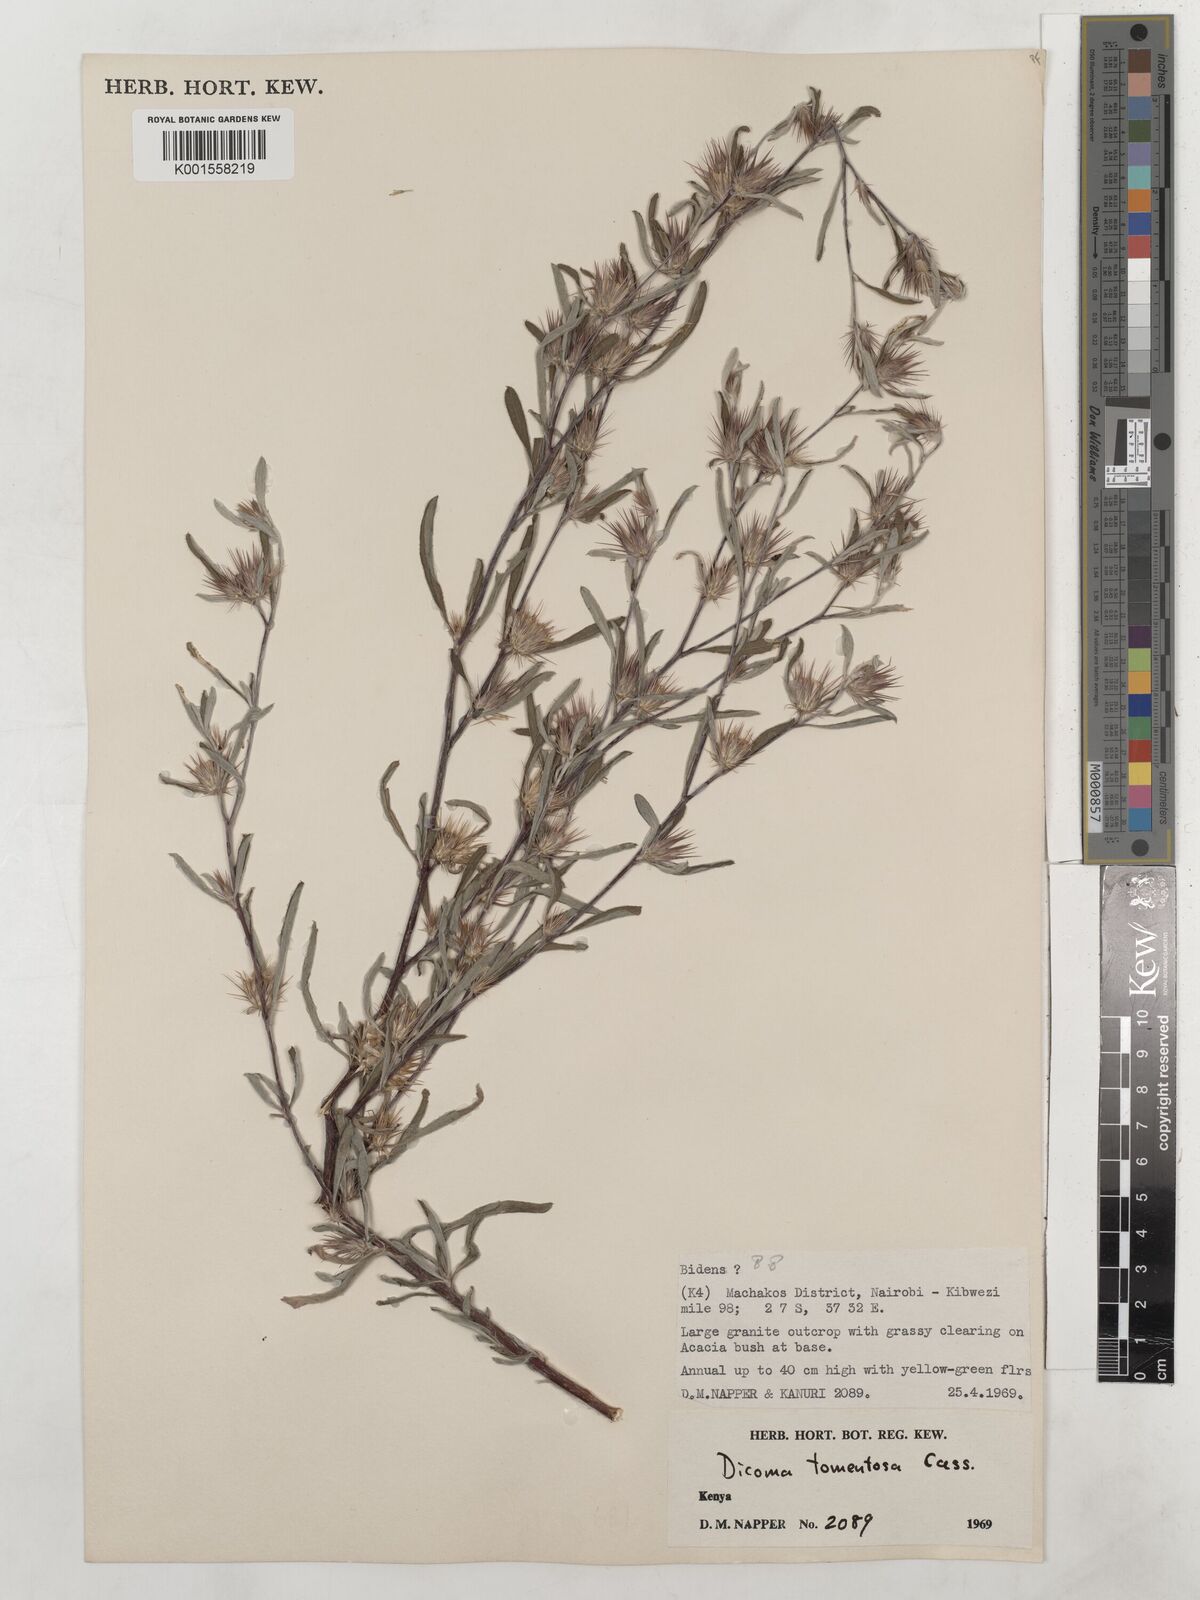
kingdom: Plantae
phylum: Tracheophyta
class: Magnoliopsida
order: Asterales
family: Asteraceae
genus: Dicoma
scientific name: Dicoma tomentosa
